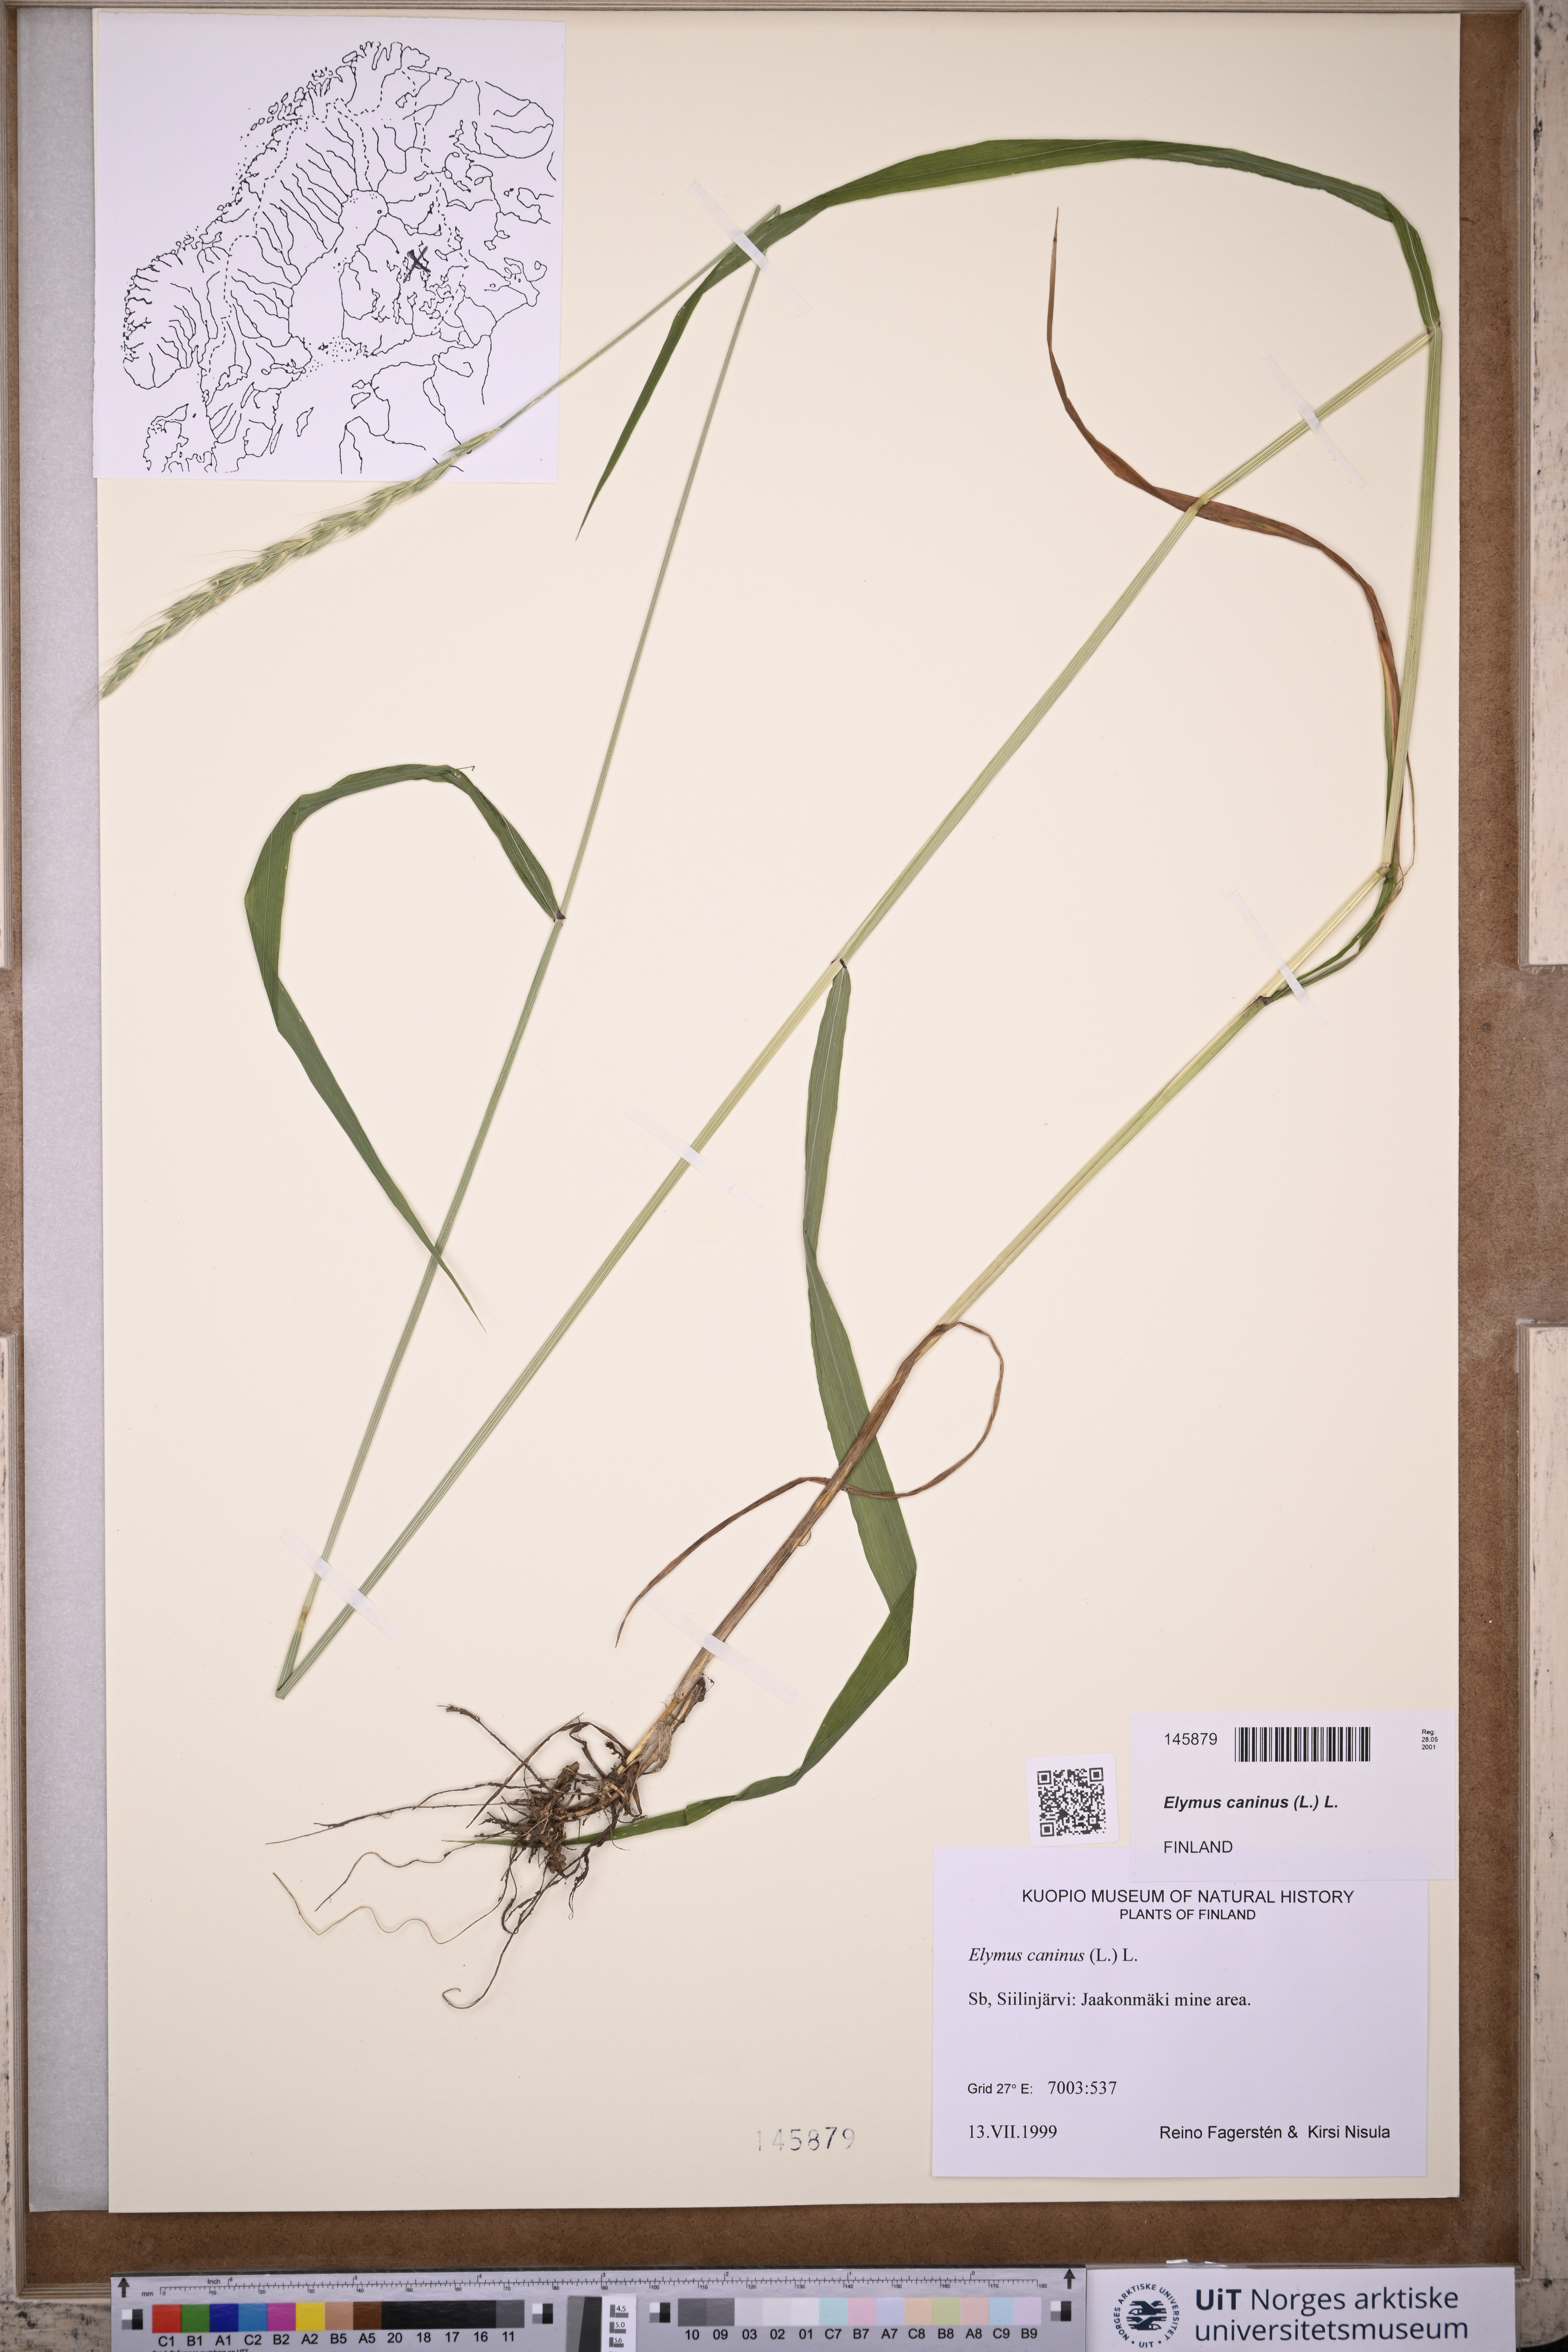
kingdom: Plantae
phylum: Tracheophyta
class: Liliopsida
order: Poales
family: Poaceae
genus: Elymus
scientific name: Elymus caninus
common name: Bearded couch
